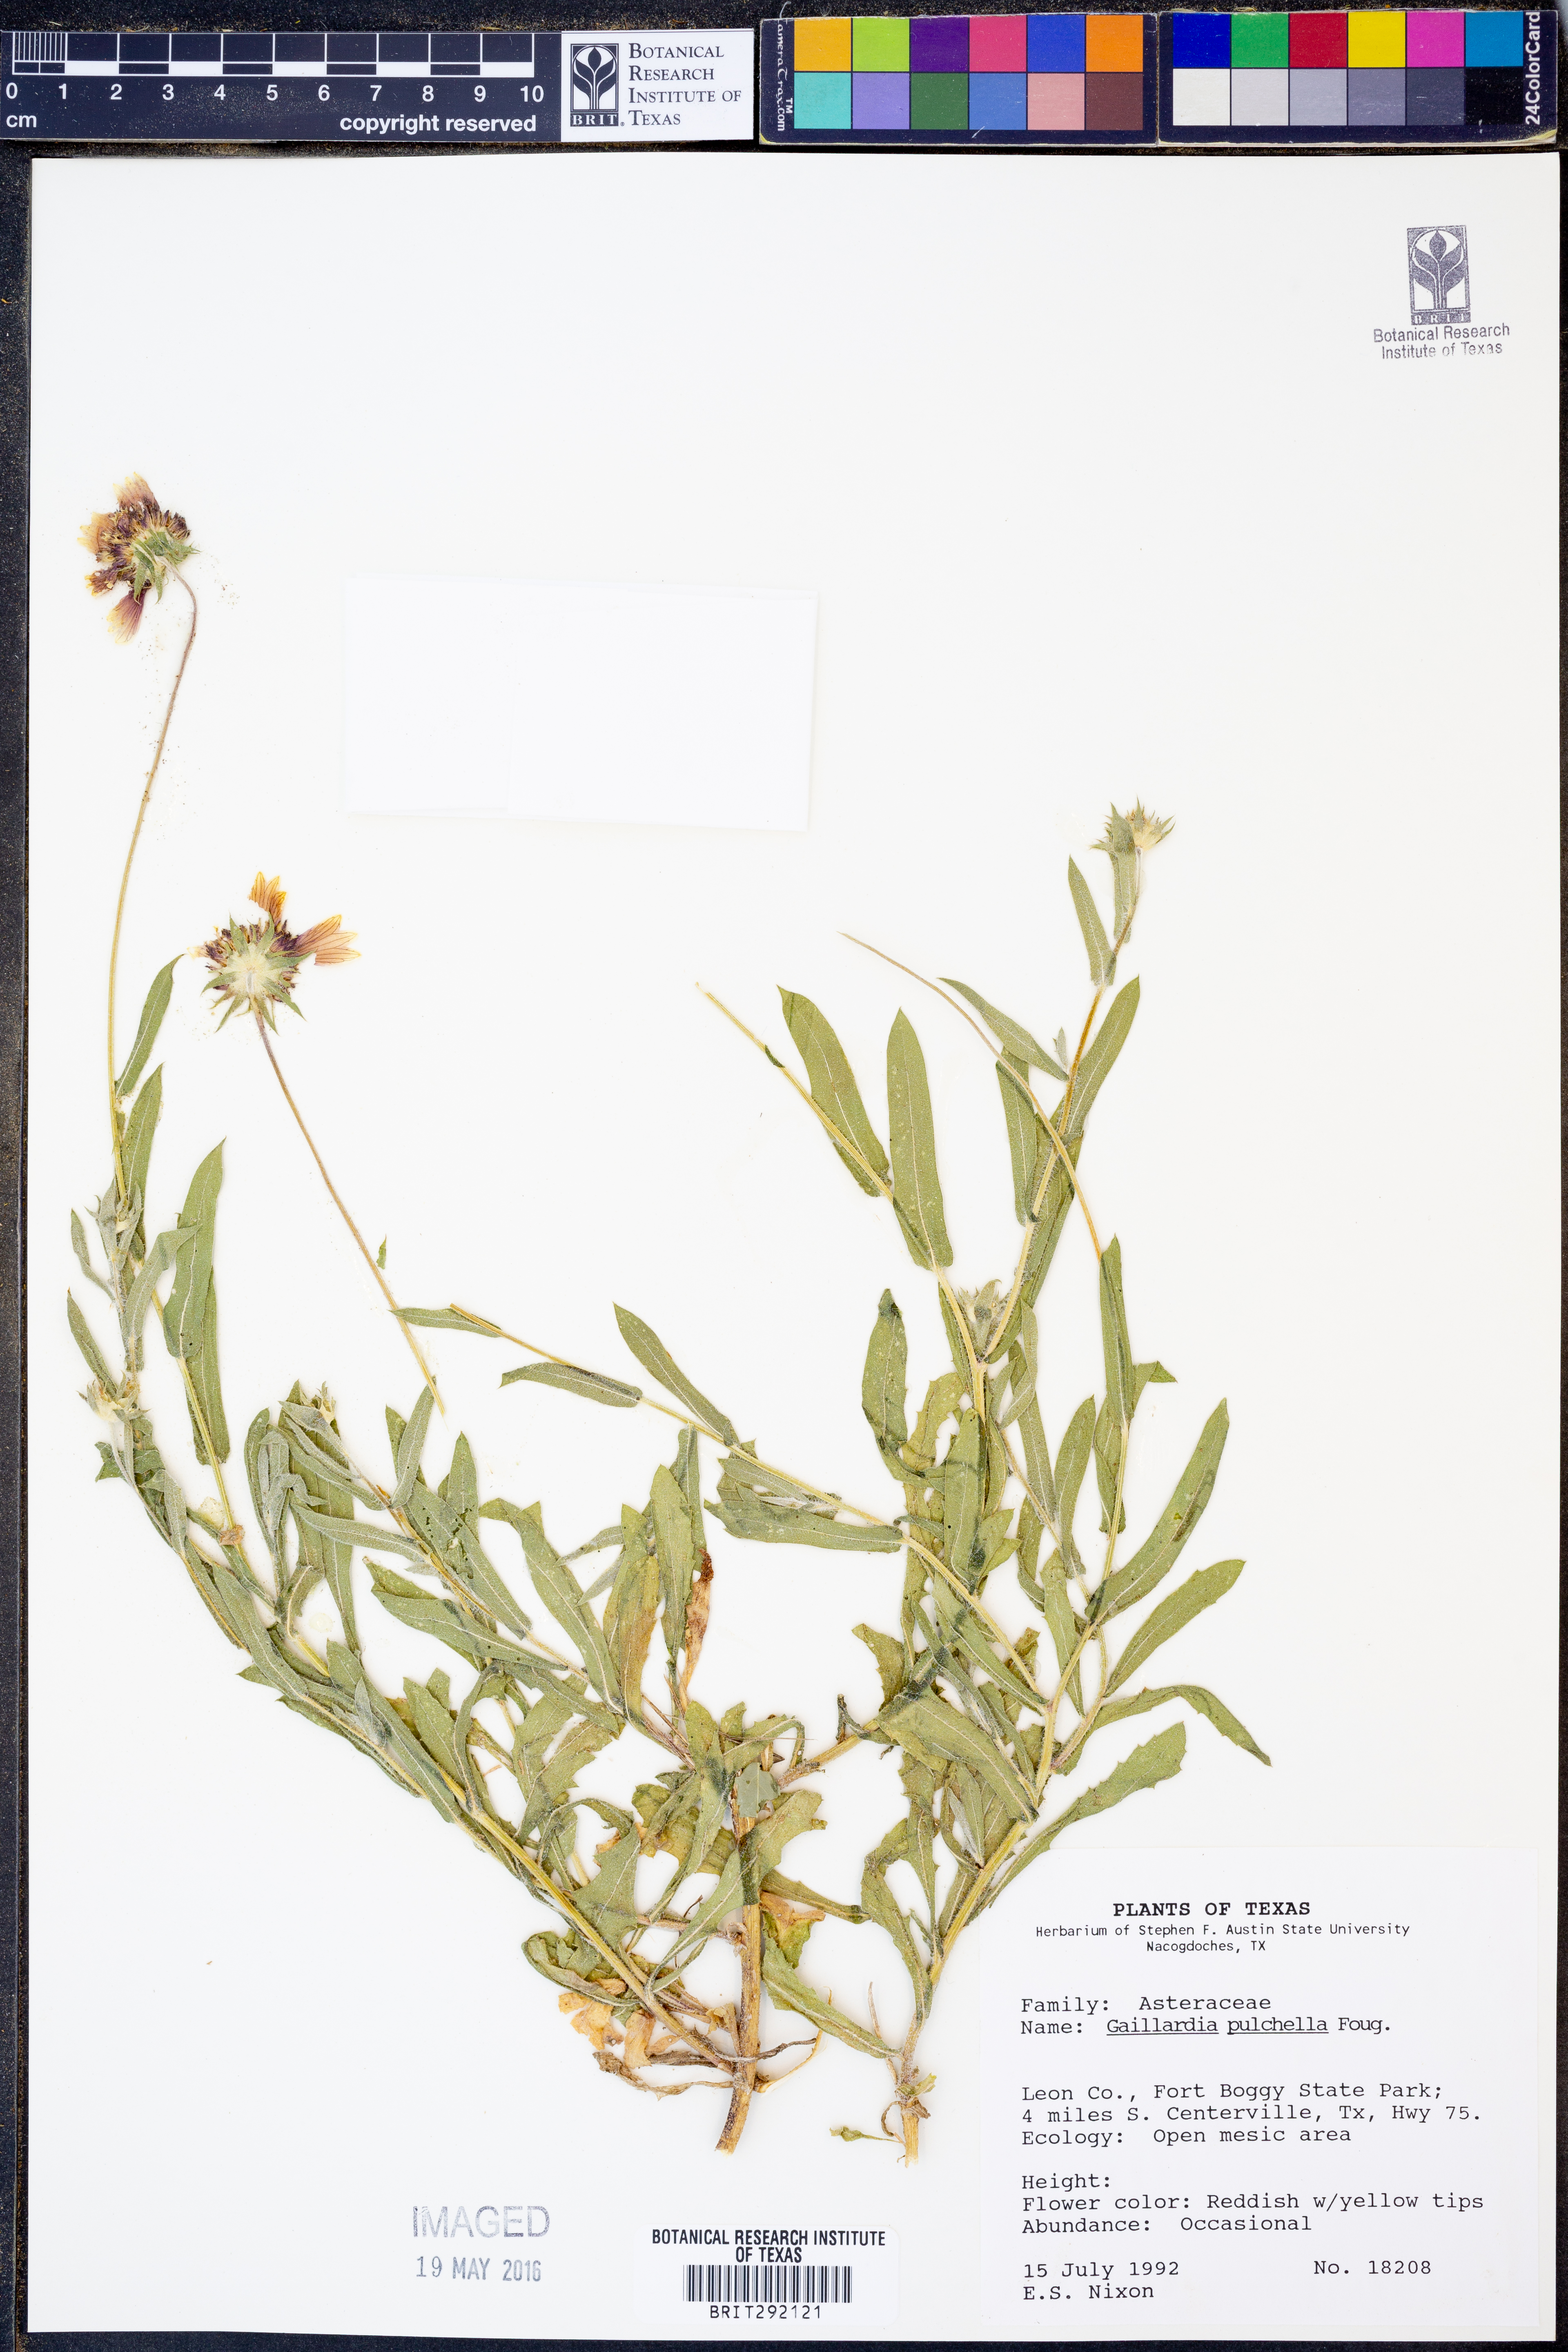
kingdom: Plantae
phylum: Tracheophyta
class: Magnoliopsida
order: Asterales
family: Asteraceae
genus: Gaillardia
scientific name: Gaillardia pulchella
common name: Firewheel
